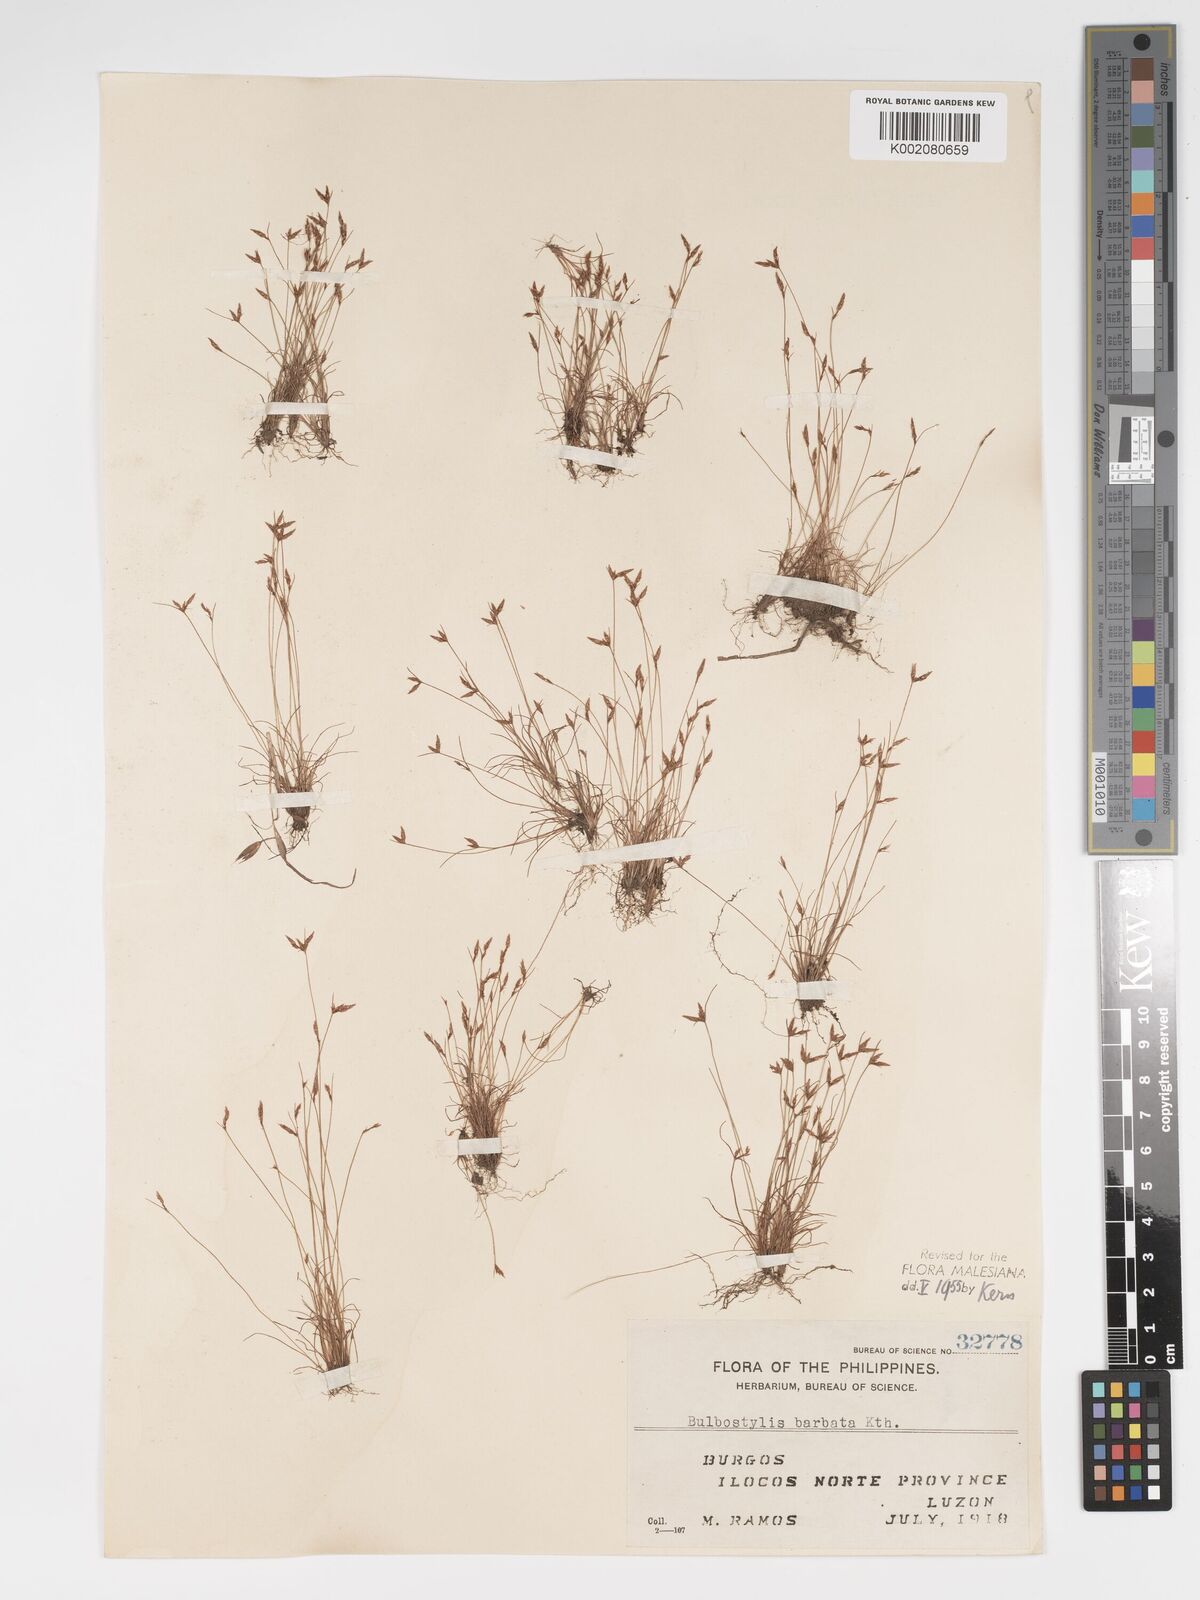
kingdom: Plantae
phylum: Tracheophyta
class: Liliopsida
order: Poales
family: Cyperaceae
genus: Bulbostylis
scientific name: Bulbostylis barbata
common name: Watergrass
